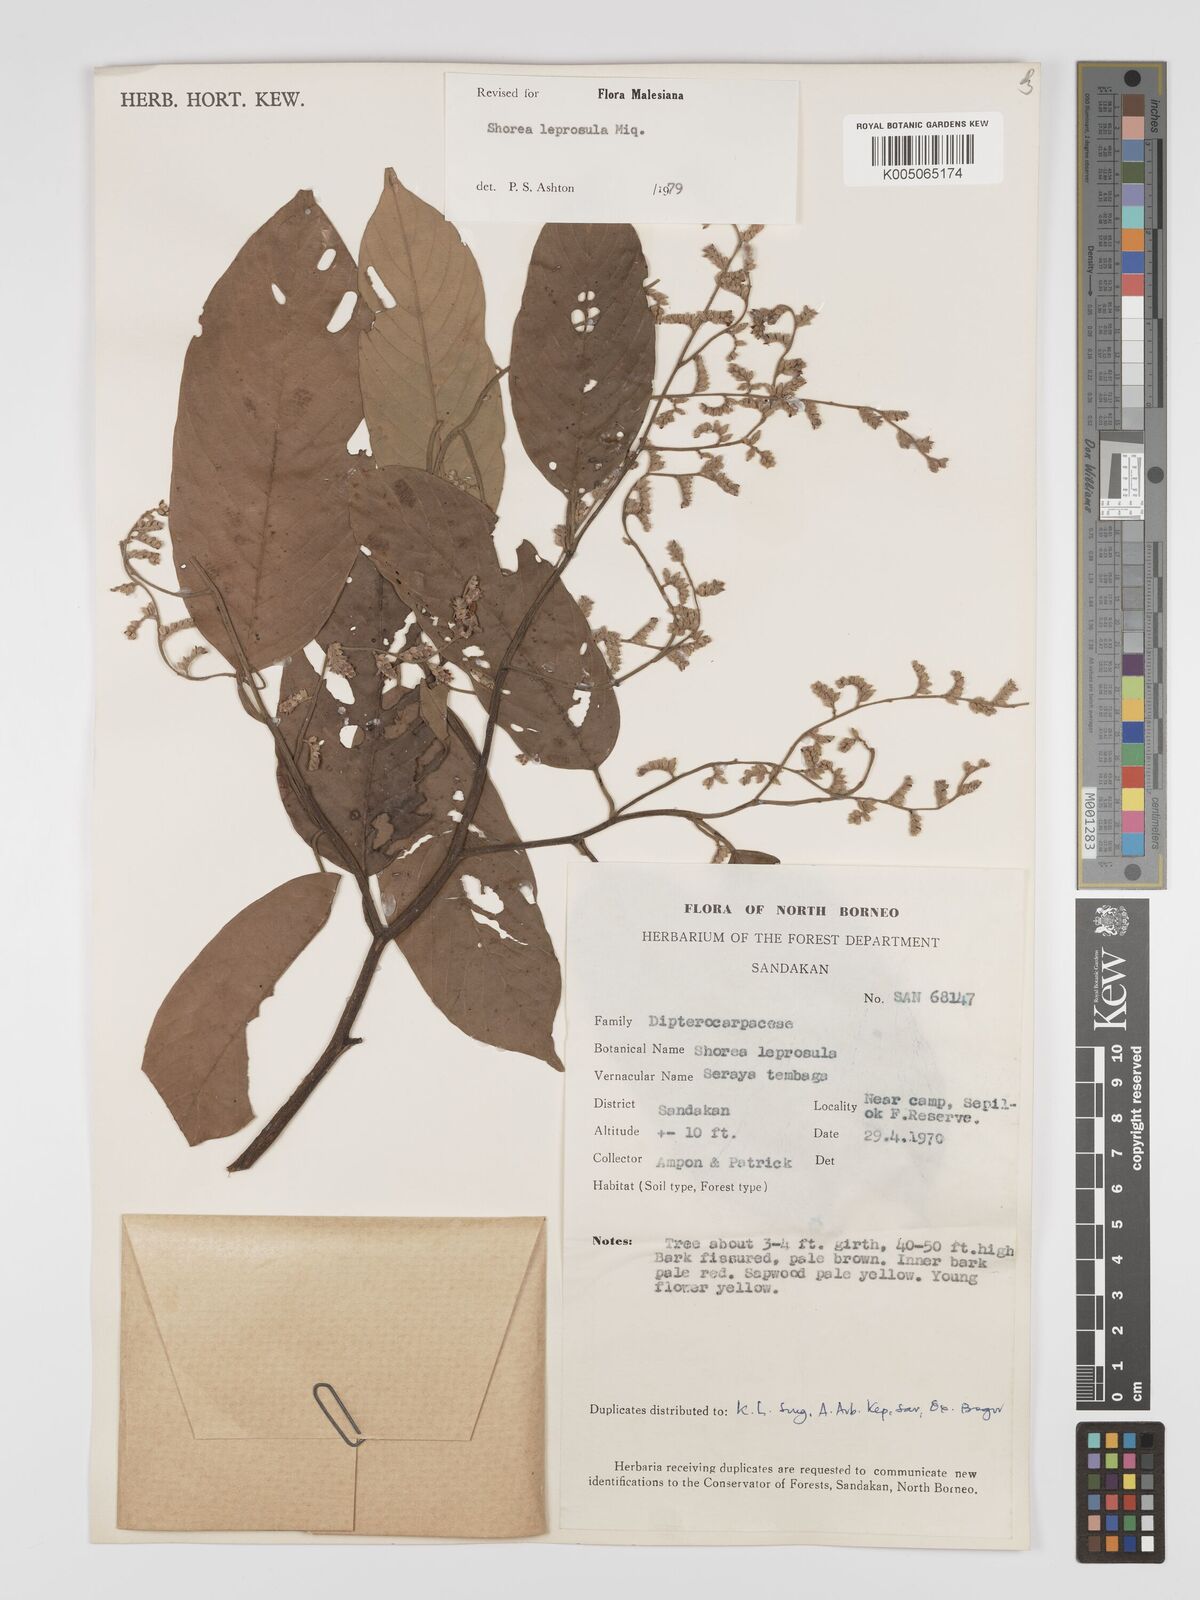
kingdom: Plantae
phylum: Tracheophyta
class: Magnoliopsida
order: Malvales
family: Dipterocarpaceae
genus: Shorea
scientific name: Shorea leprosula
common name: Light red meranti
